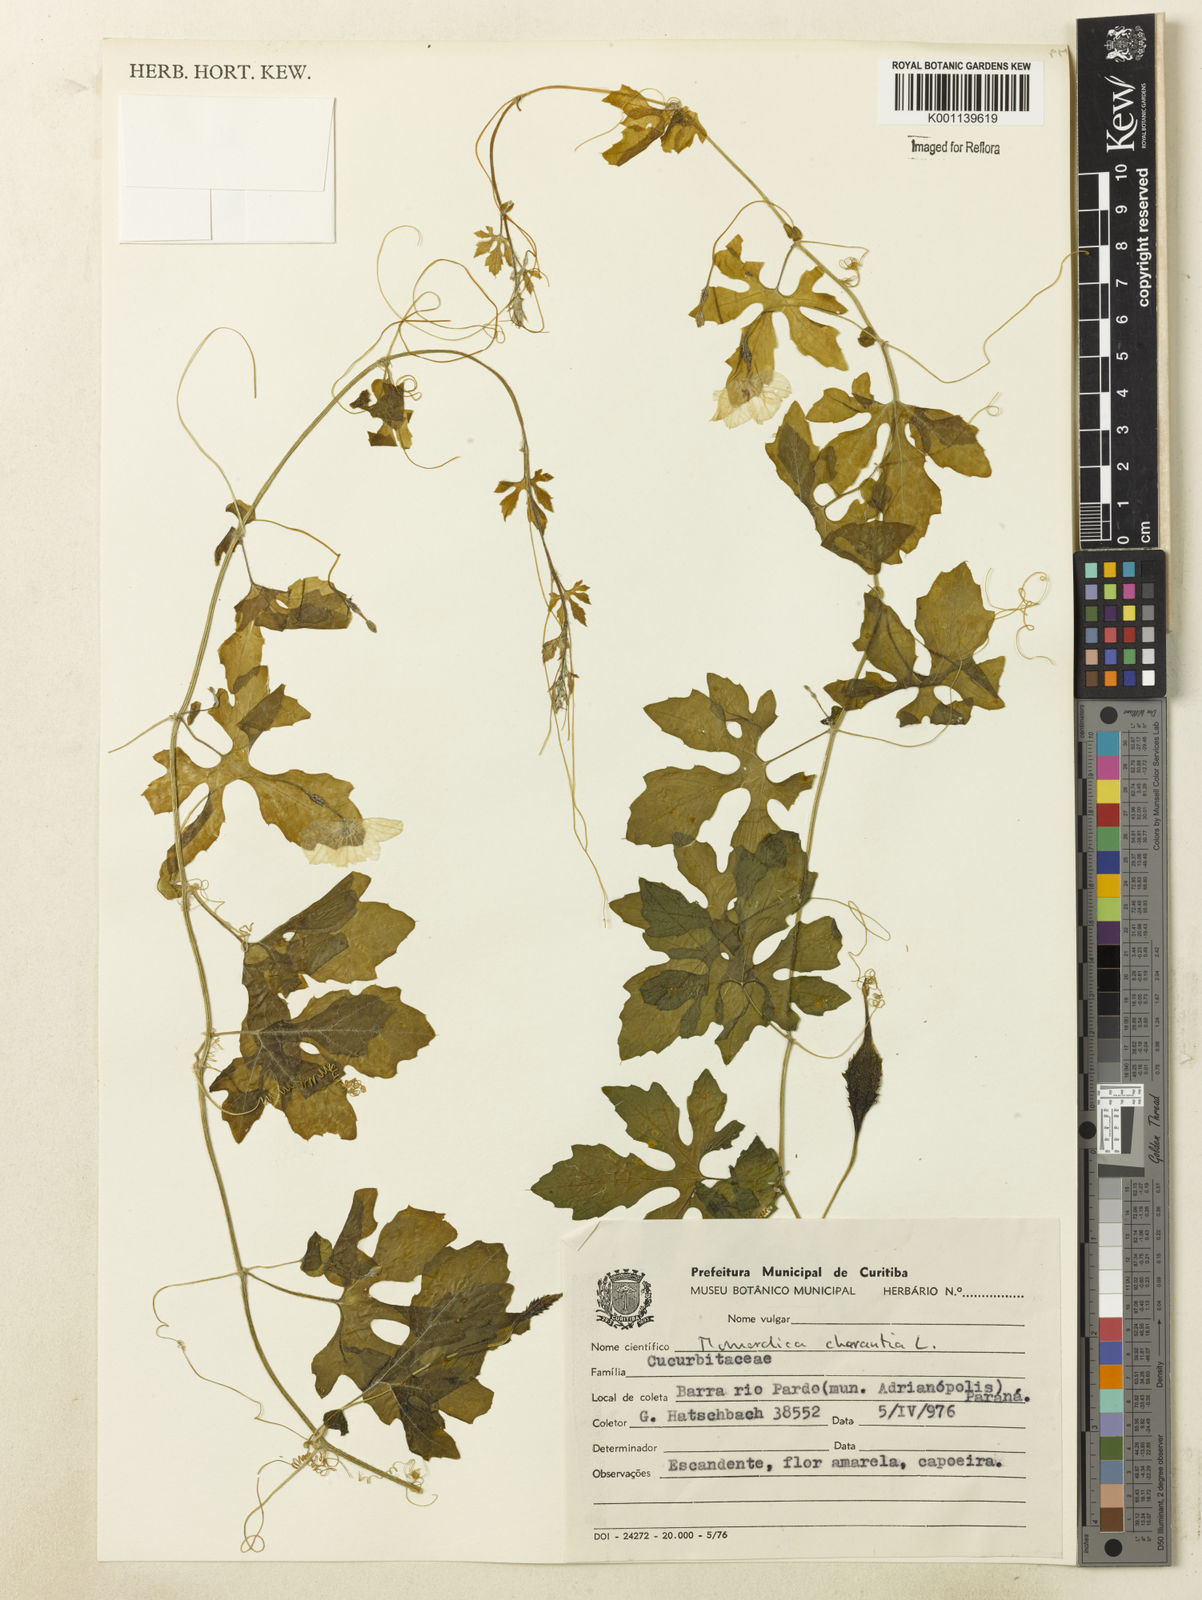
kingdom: Plantae
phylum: Tracheophyta
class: Magnoliopsida
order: Cucurbitales
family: Cucurbitaceae
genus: Momordica
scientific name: Momordica charantia
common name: Balsampear
